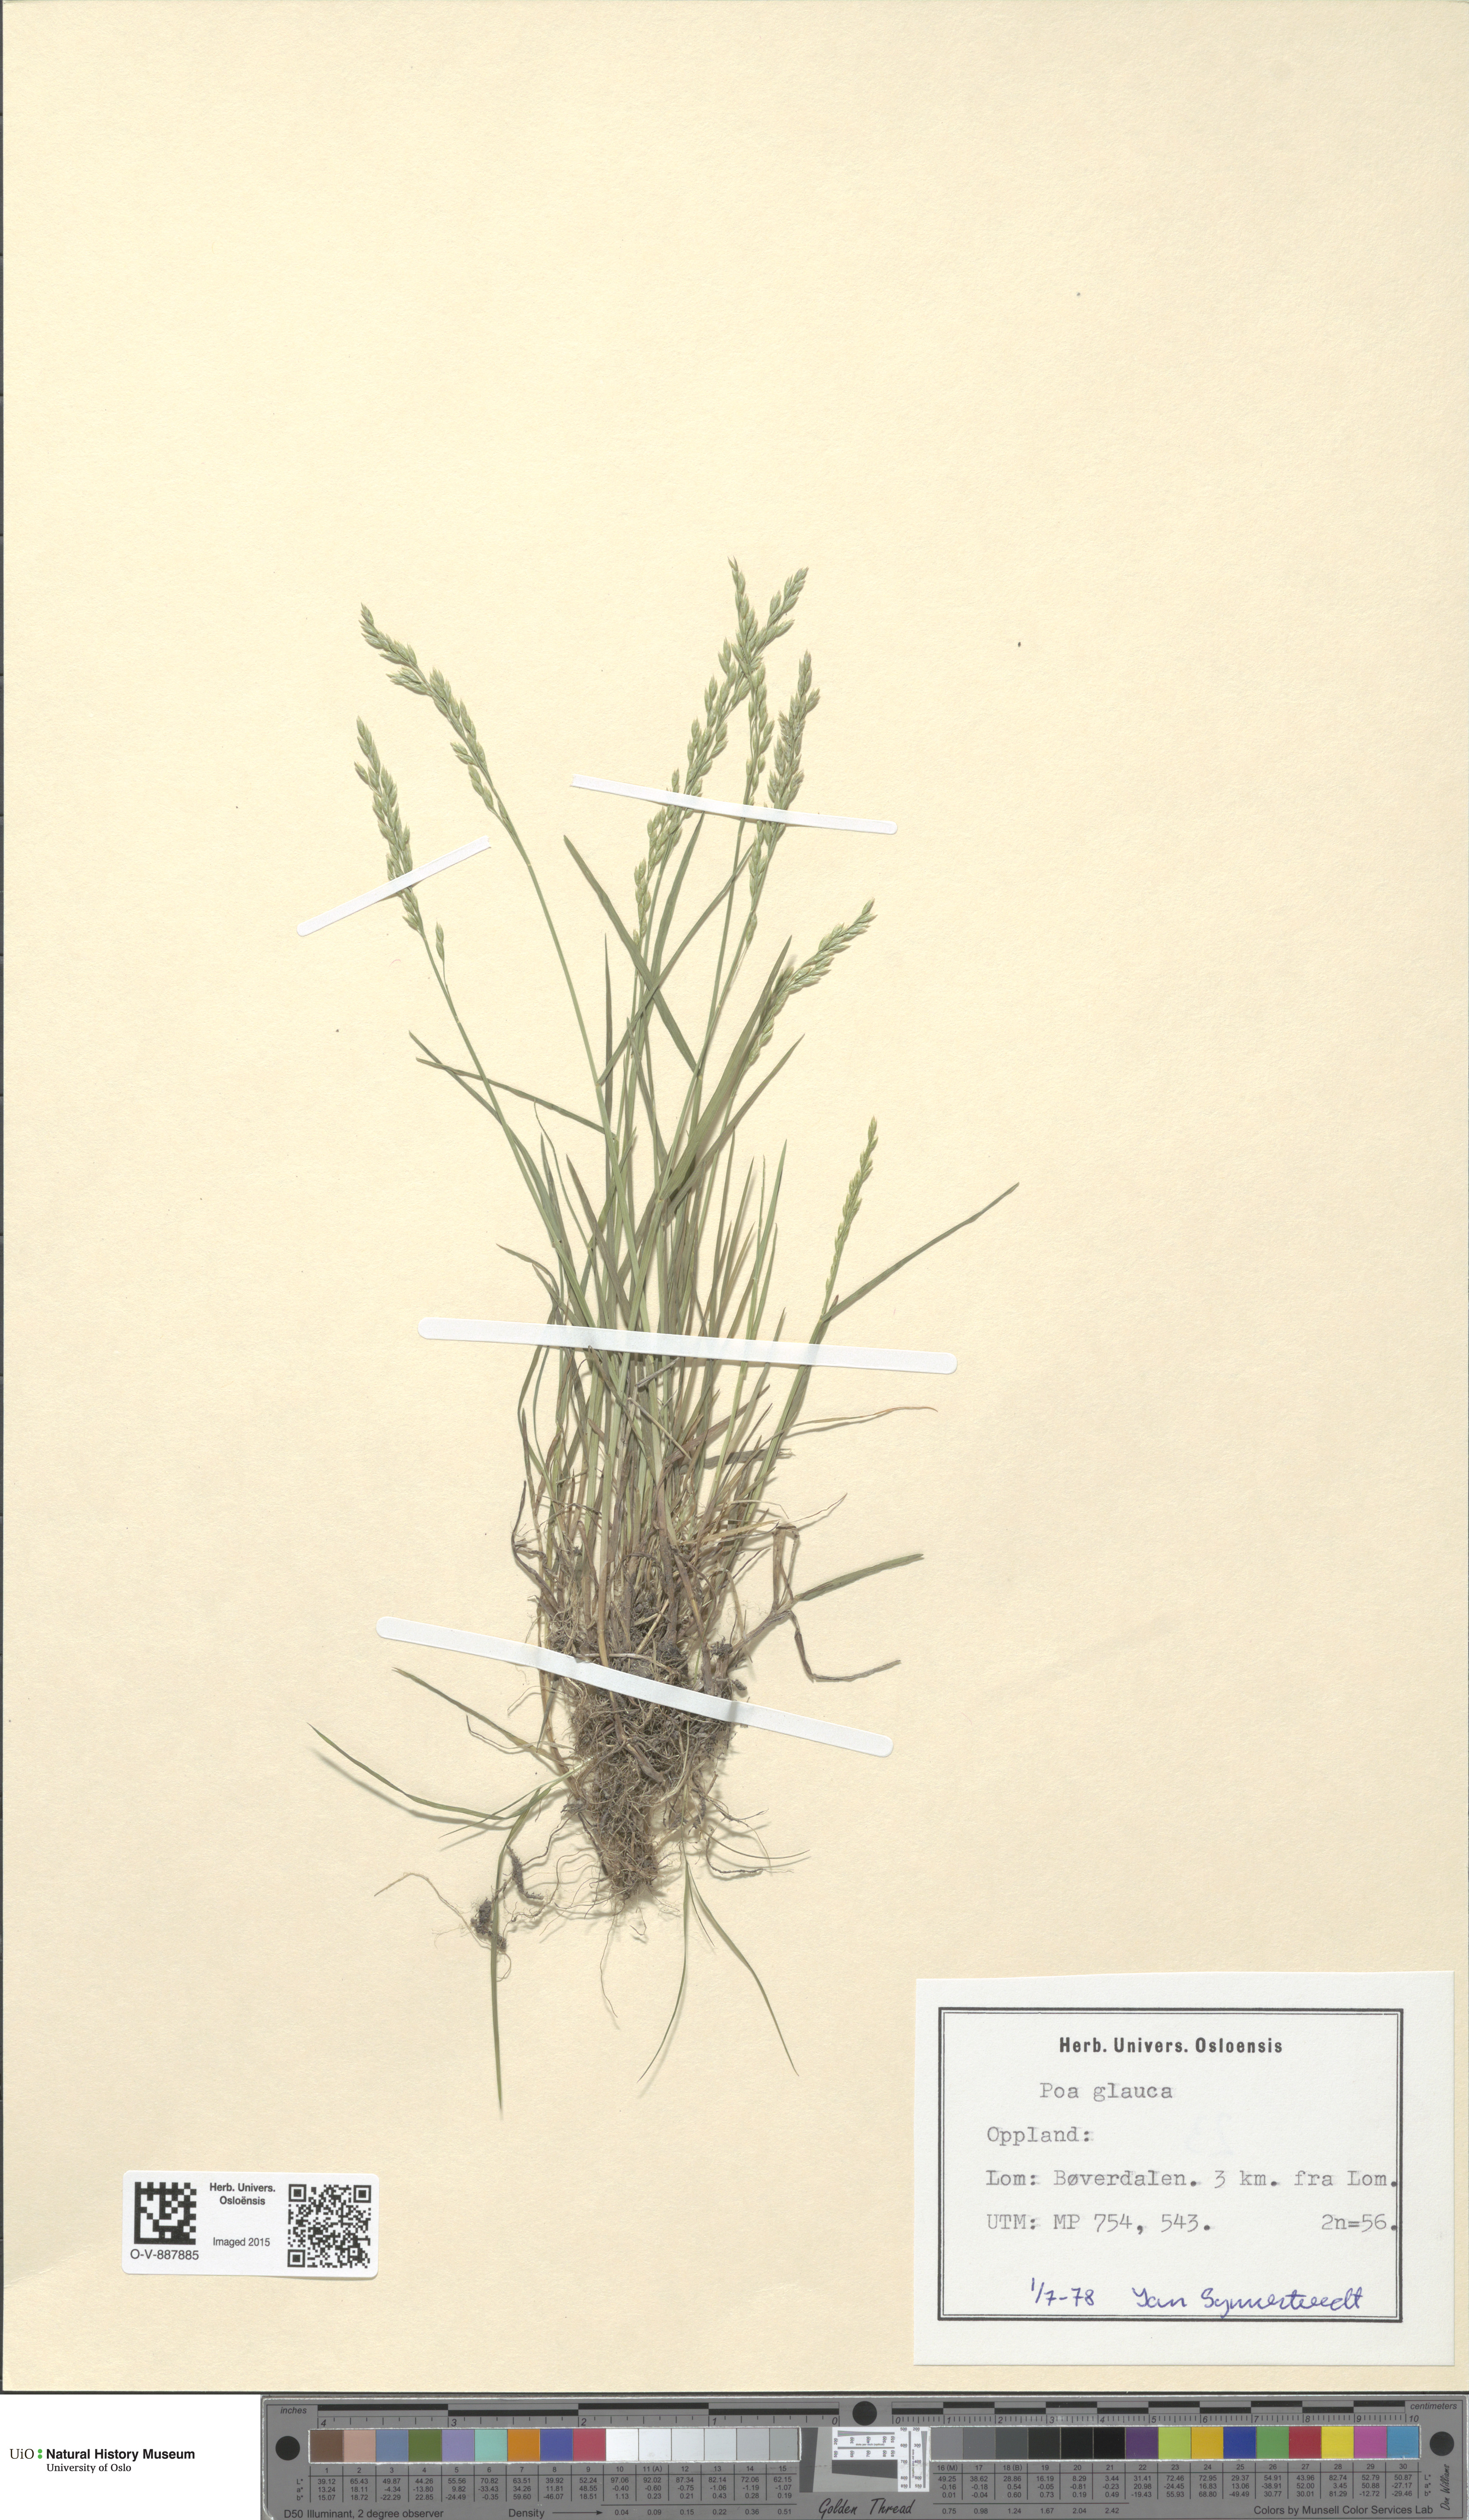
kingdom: Plantae
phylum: Tracheophyta
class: Liliopsida
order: Poales
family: Poaceae
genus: Poa
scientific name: Poa glauca
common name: Glaucous bluegrass
